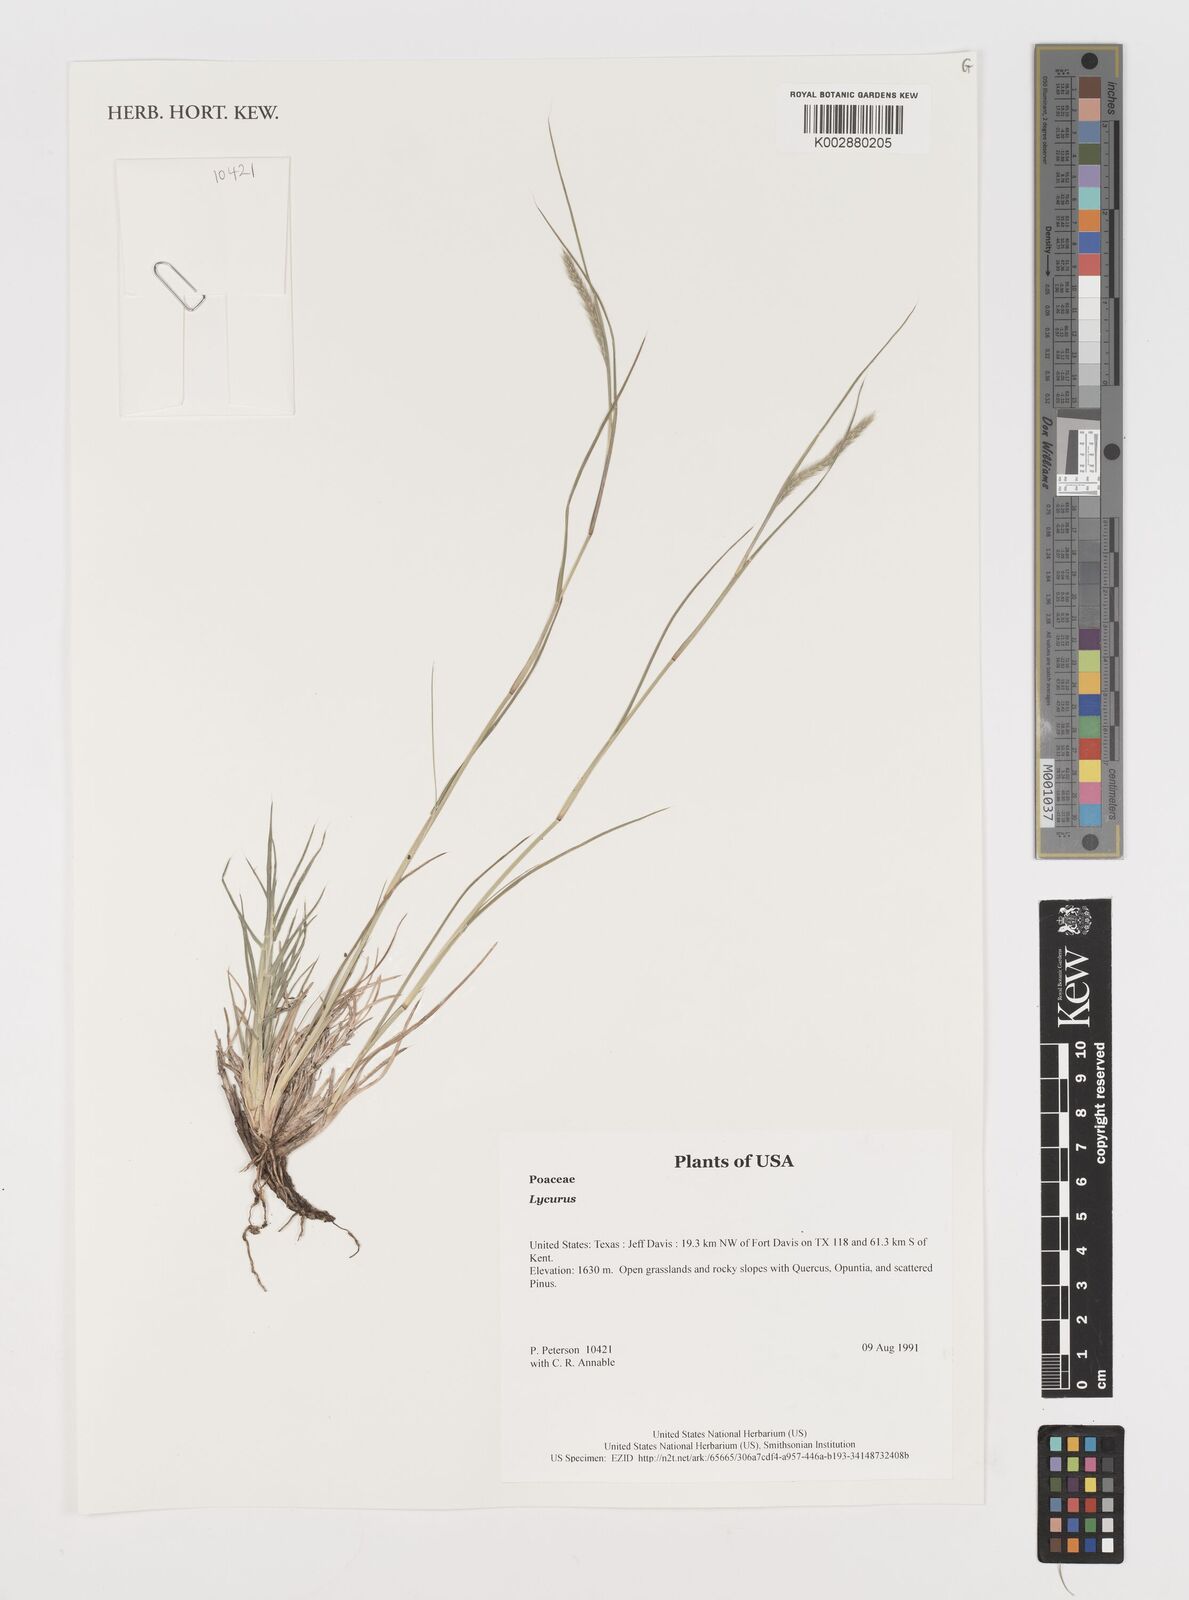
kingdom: Plantae
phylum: Tracheophyta
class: Liliopsida
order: Poales
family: Poaceae
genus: Muhlenbergia
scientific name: Muhlenbergia
